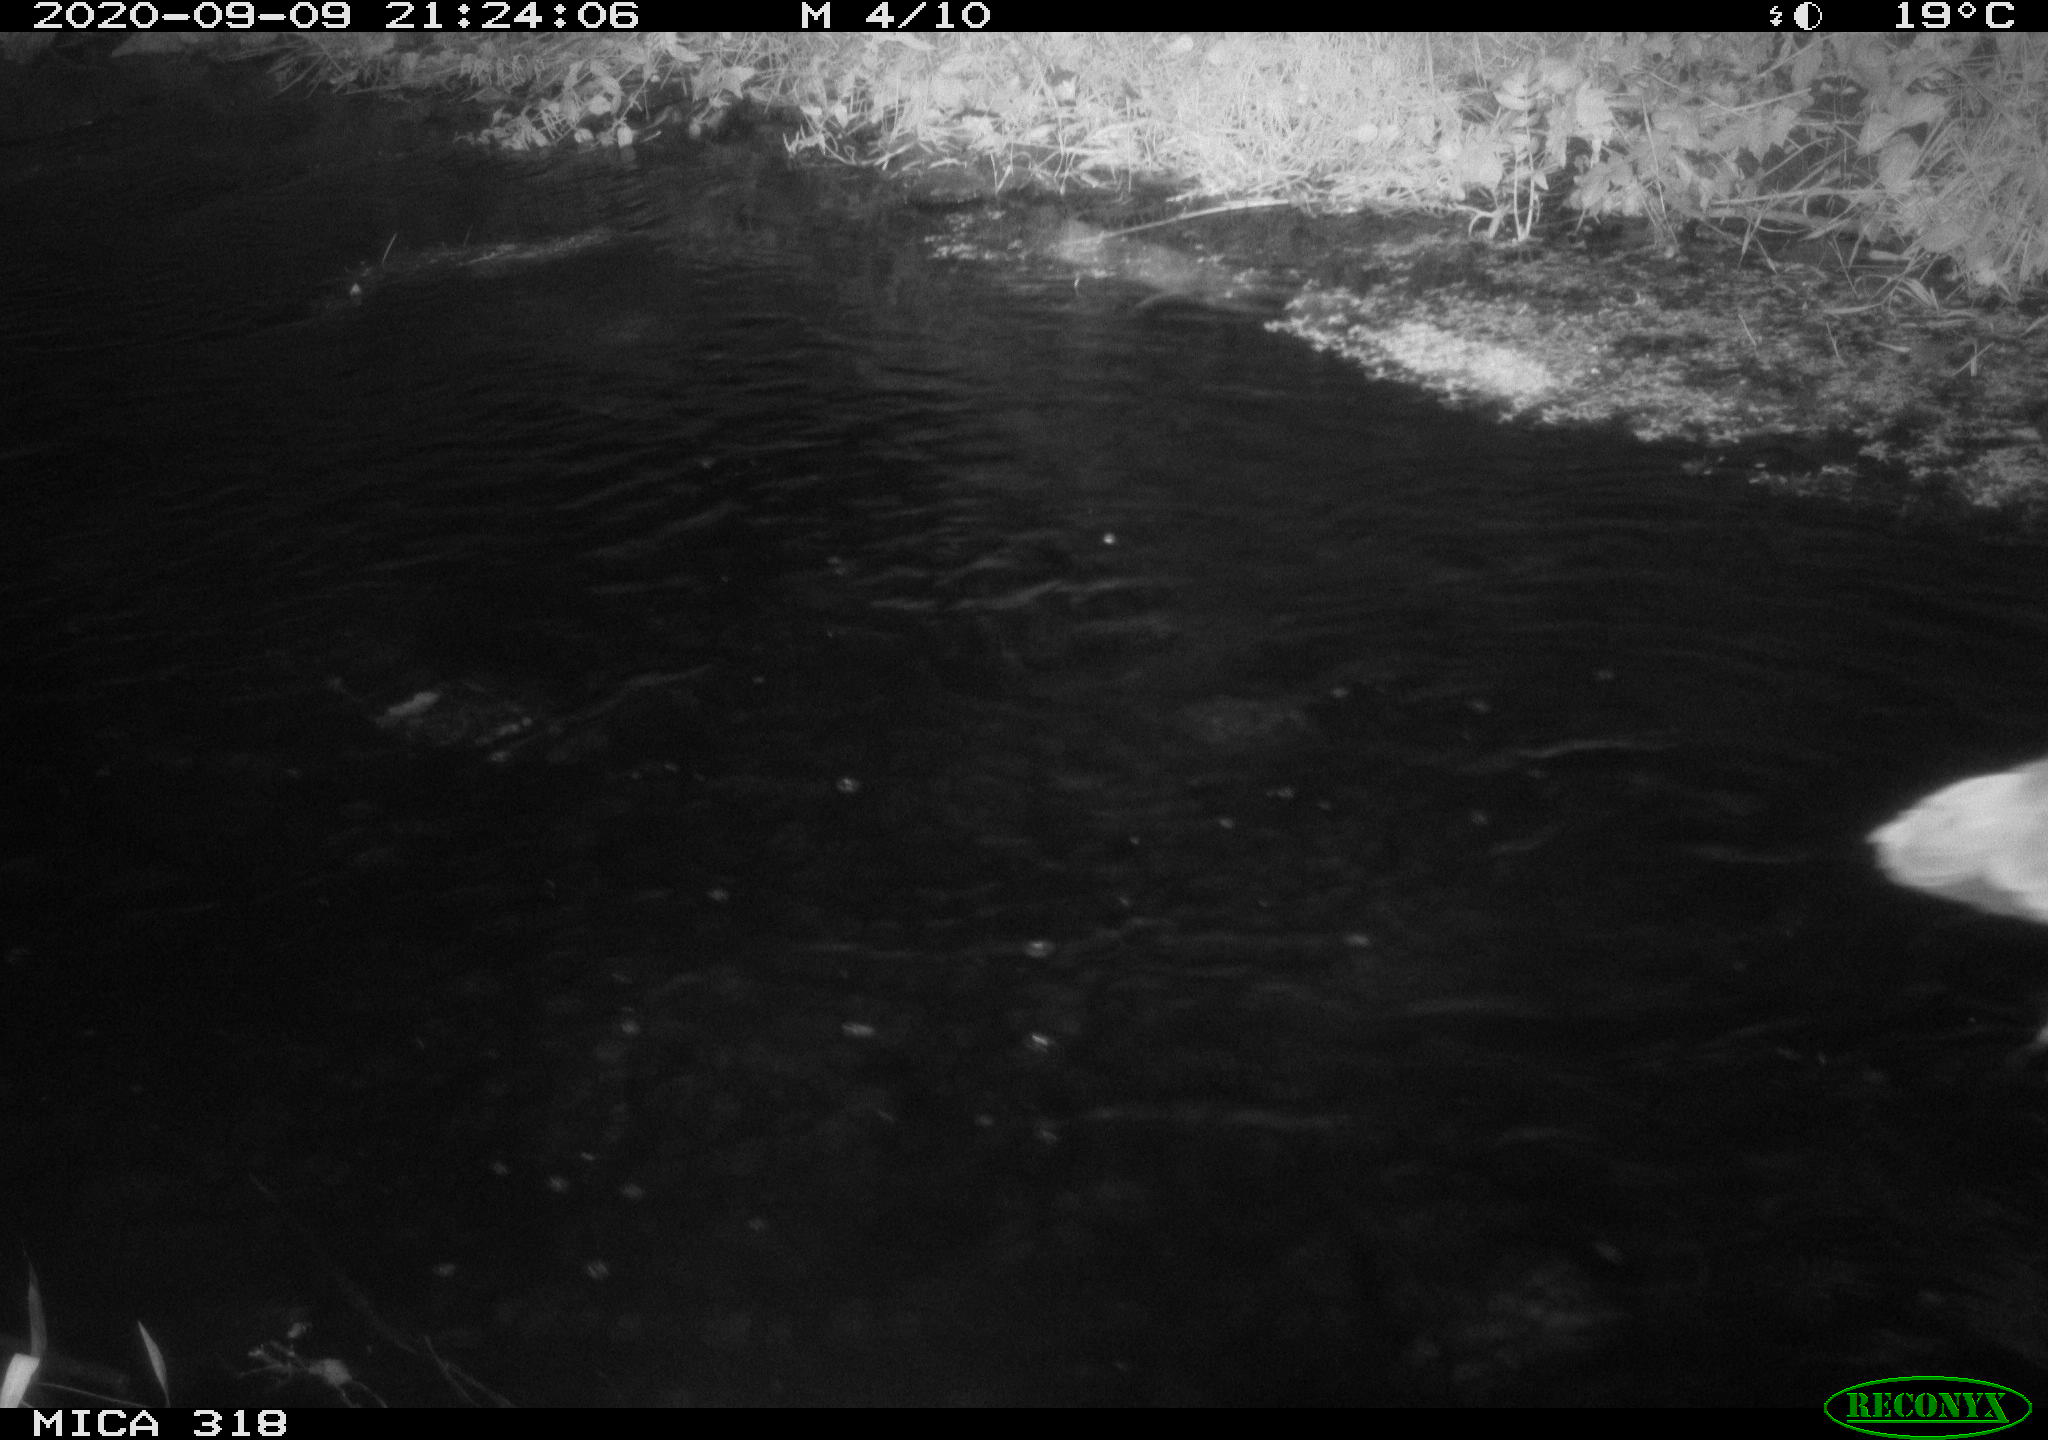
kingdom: Animalia
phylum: Chordata
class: Aves
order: Pelecaniformes
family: Ardeidae
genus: Ardea
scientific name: Ardea
